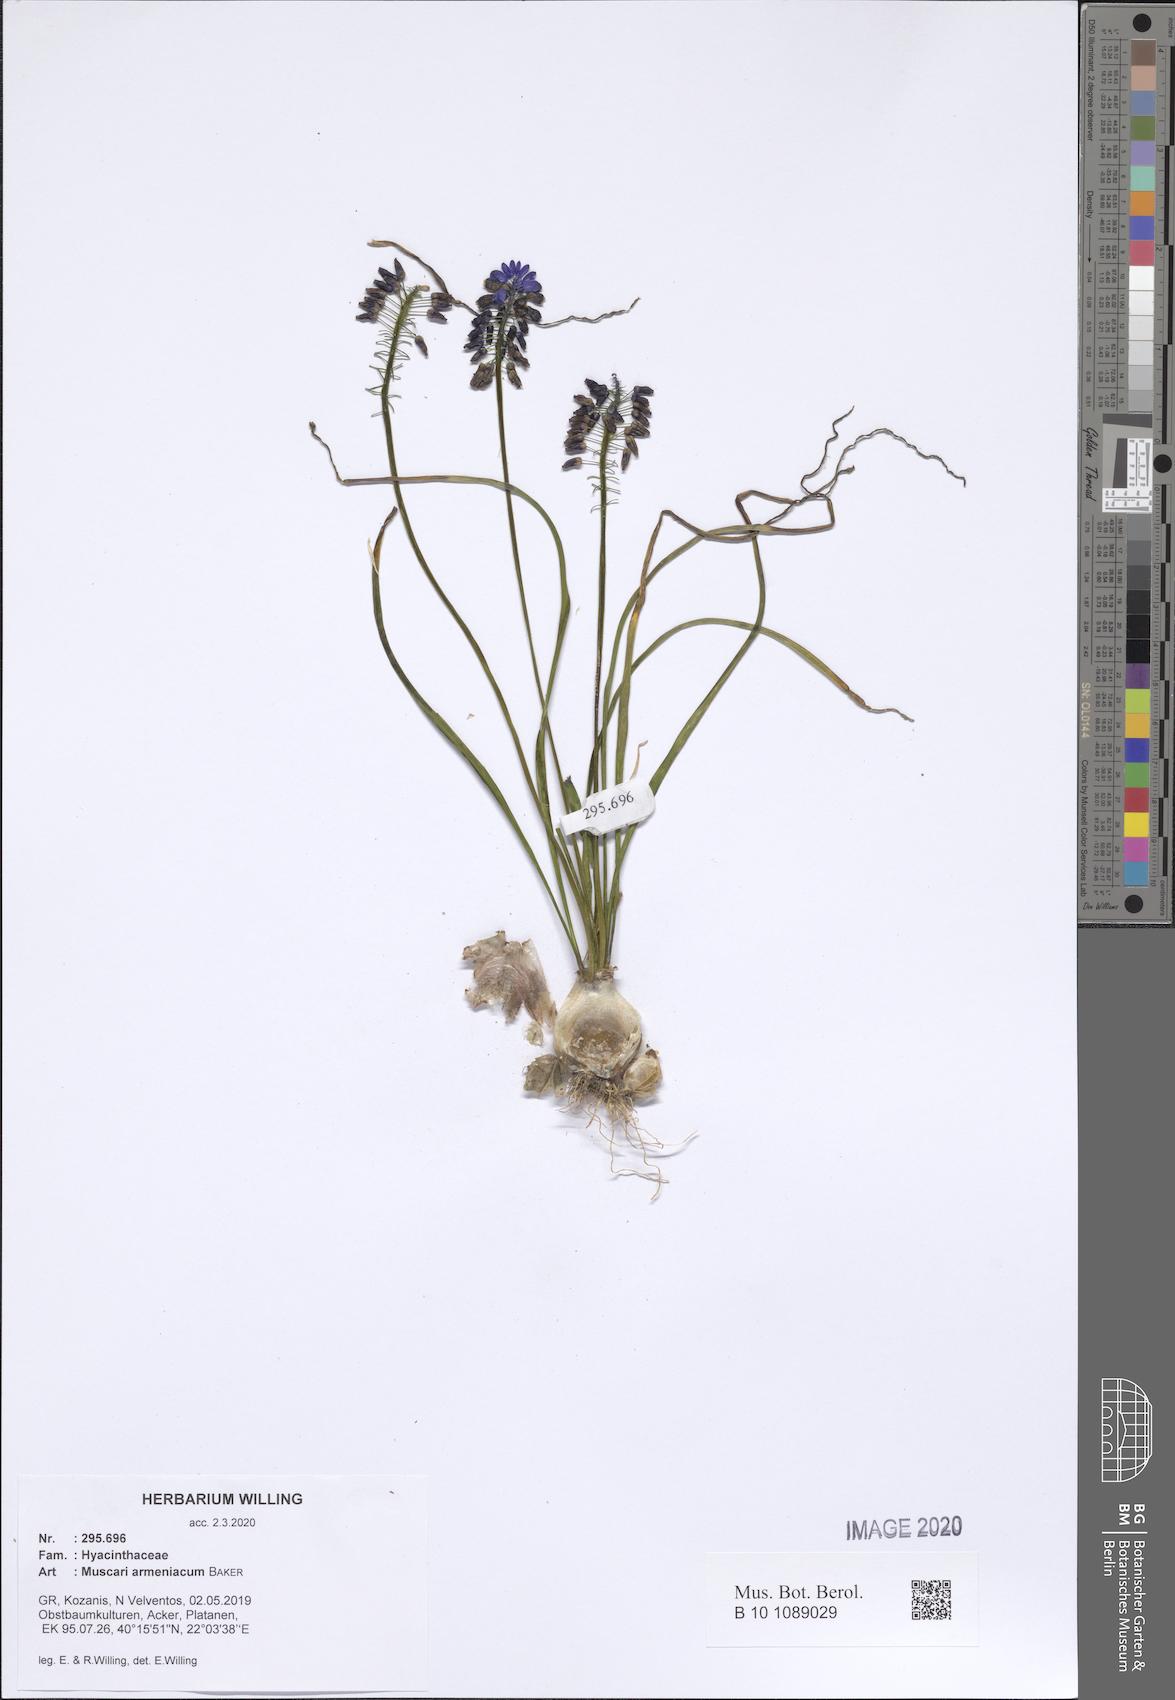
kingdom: Plantae
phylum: Tracheophyta
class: Liliopsida
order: Asparagales
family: Asparagaceae
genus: Muscari
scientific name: Muscari armeniacum
